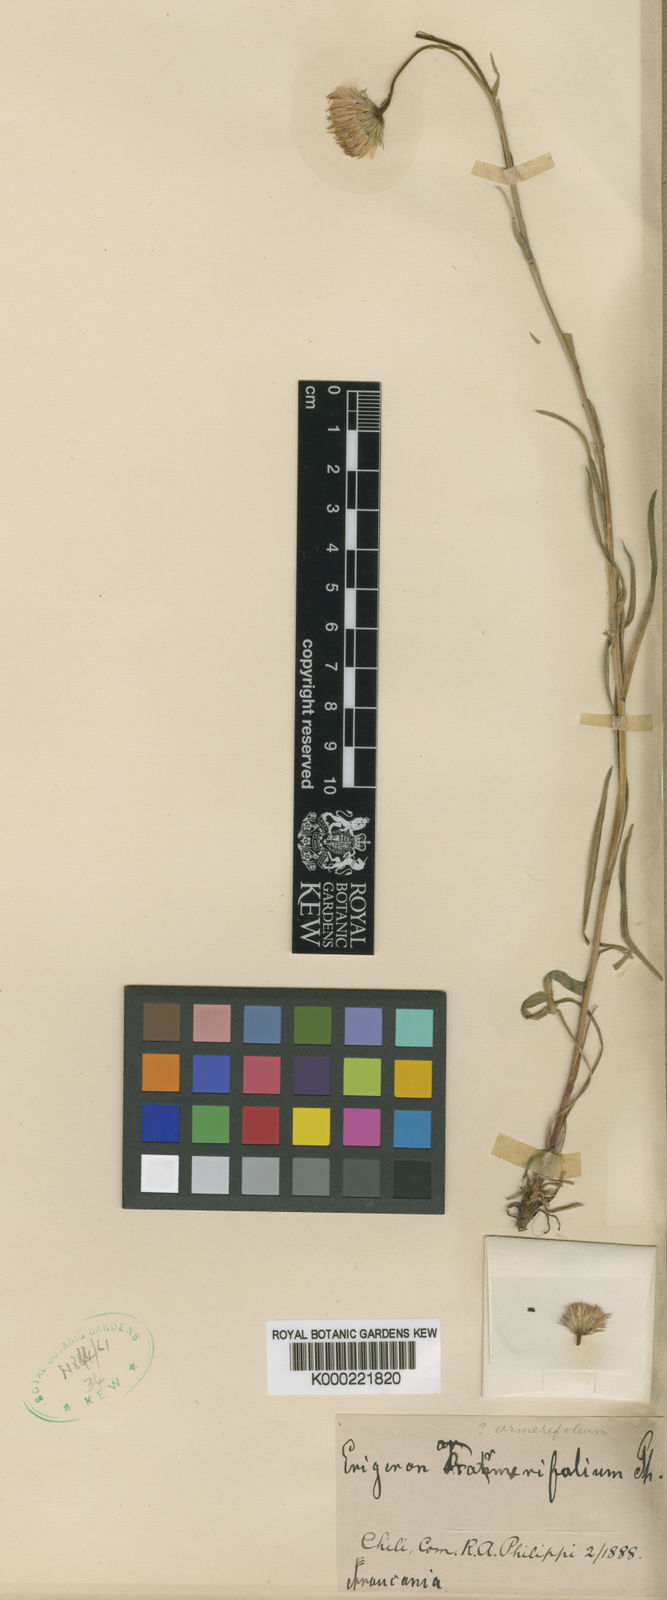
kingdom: Plantae
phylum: Tracheophyta
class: Magnoliopsida
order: Asterales
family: Asteraceae
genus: Erigeron
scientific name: Erigeron
